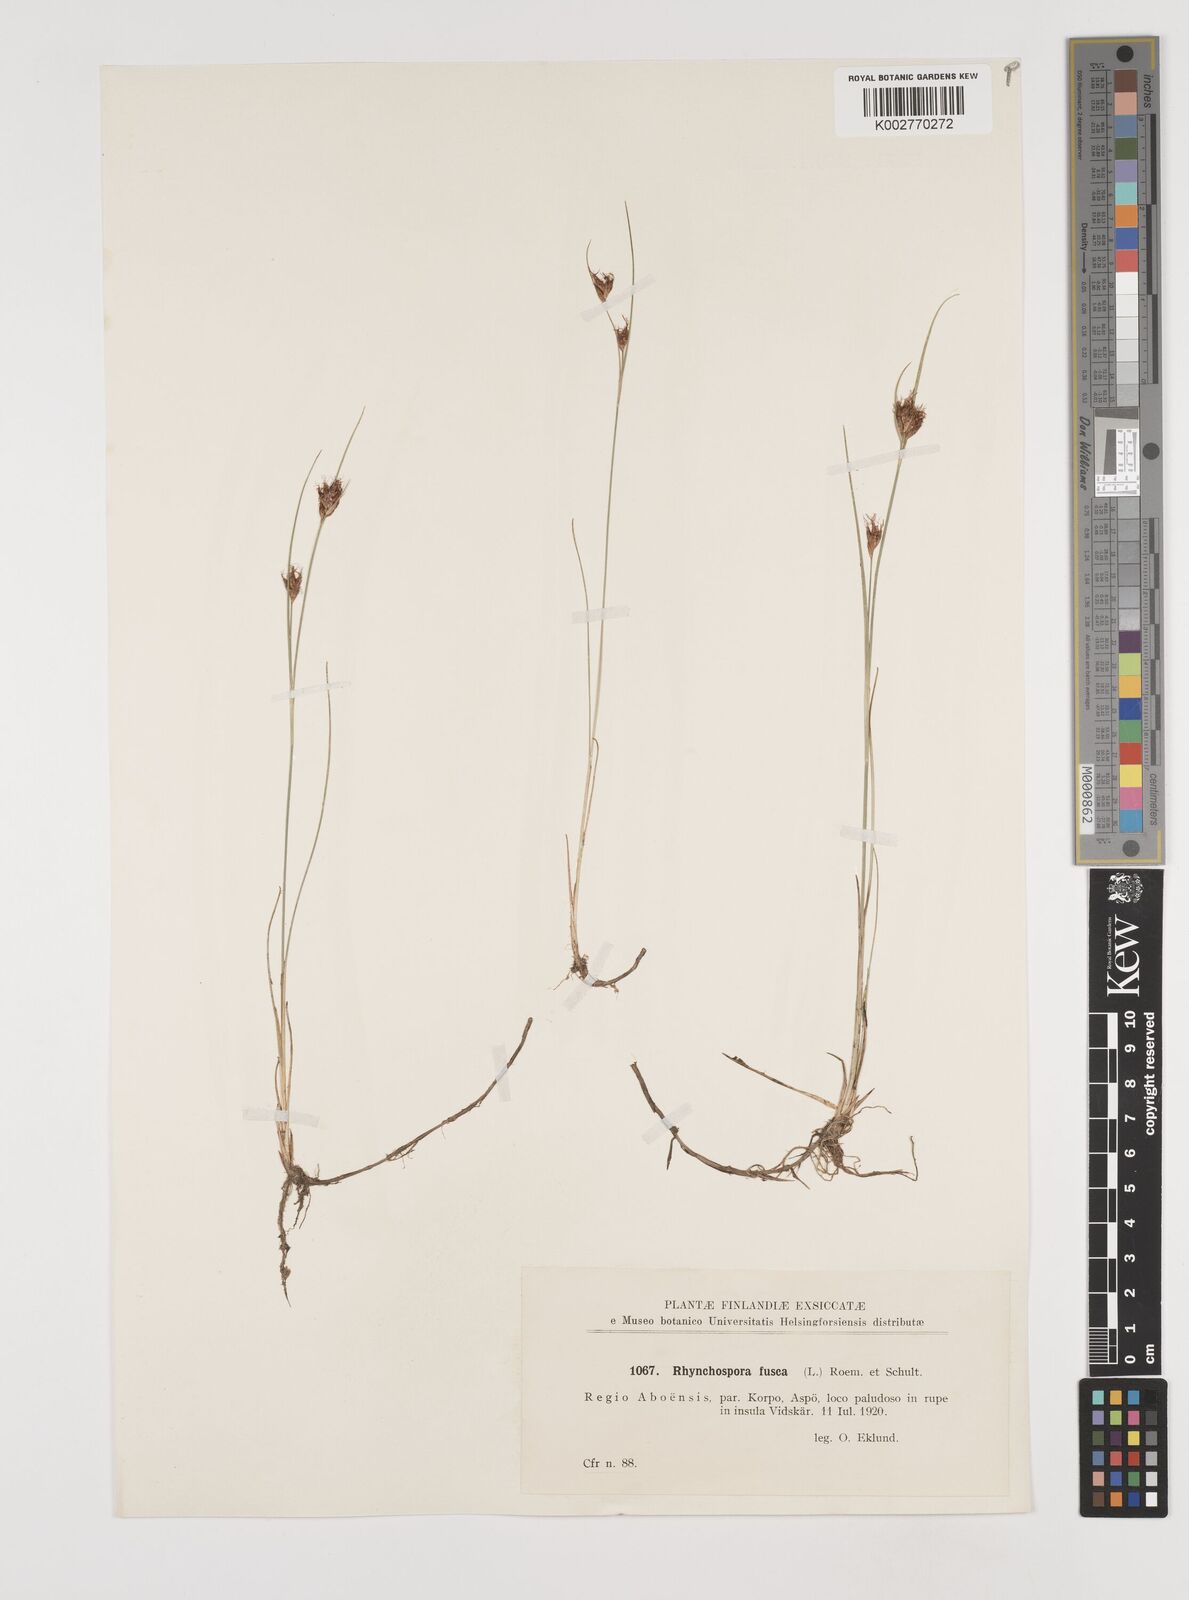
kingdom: Plantae
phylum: Tracheophyta
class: Liliopsida
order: Poales
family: Cyperaceae
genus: Rhynchospora
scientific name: Rhynchospora fusca
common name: Brown beak-sedge
